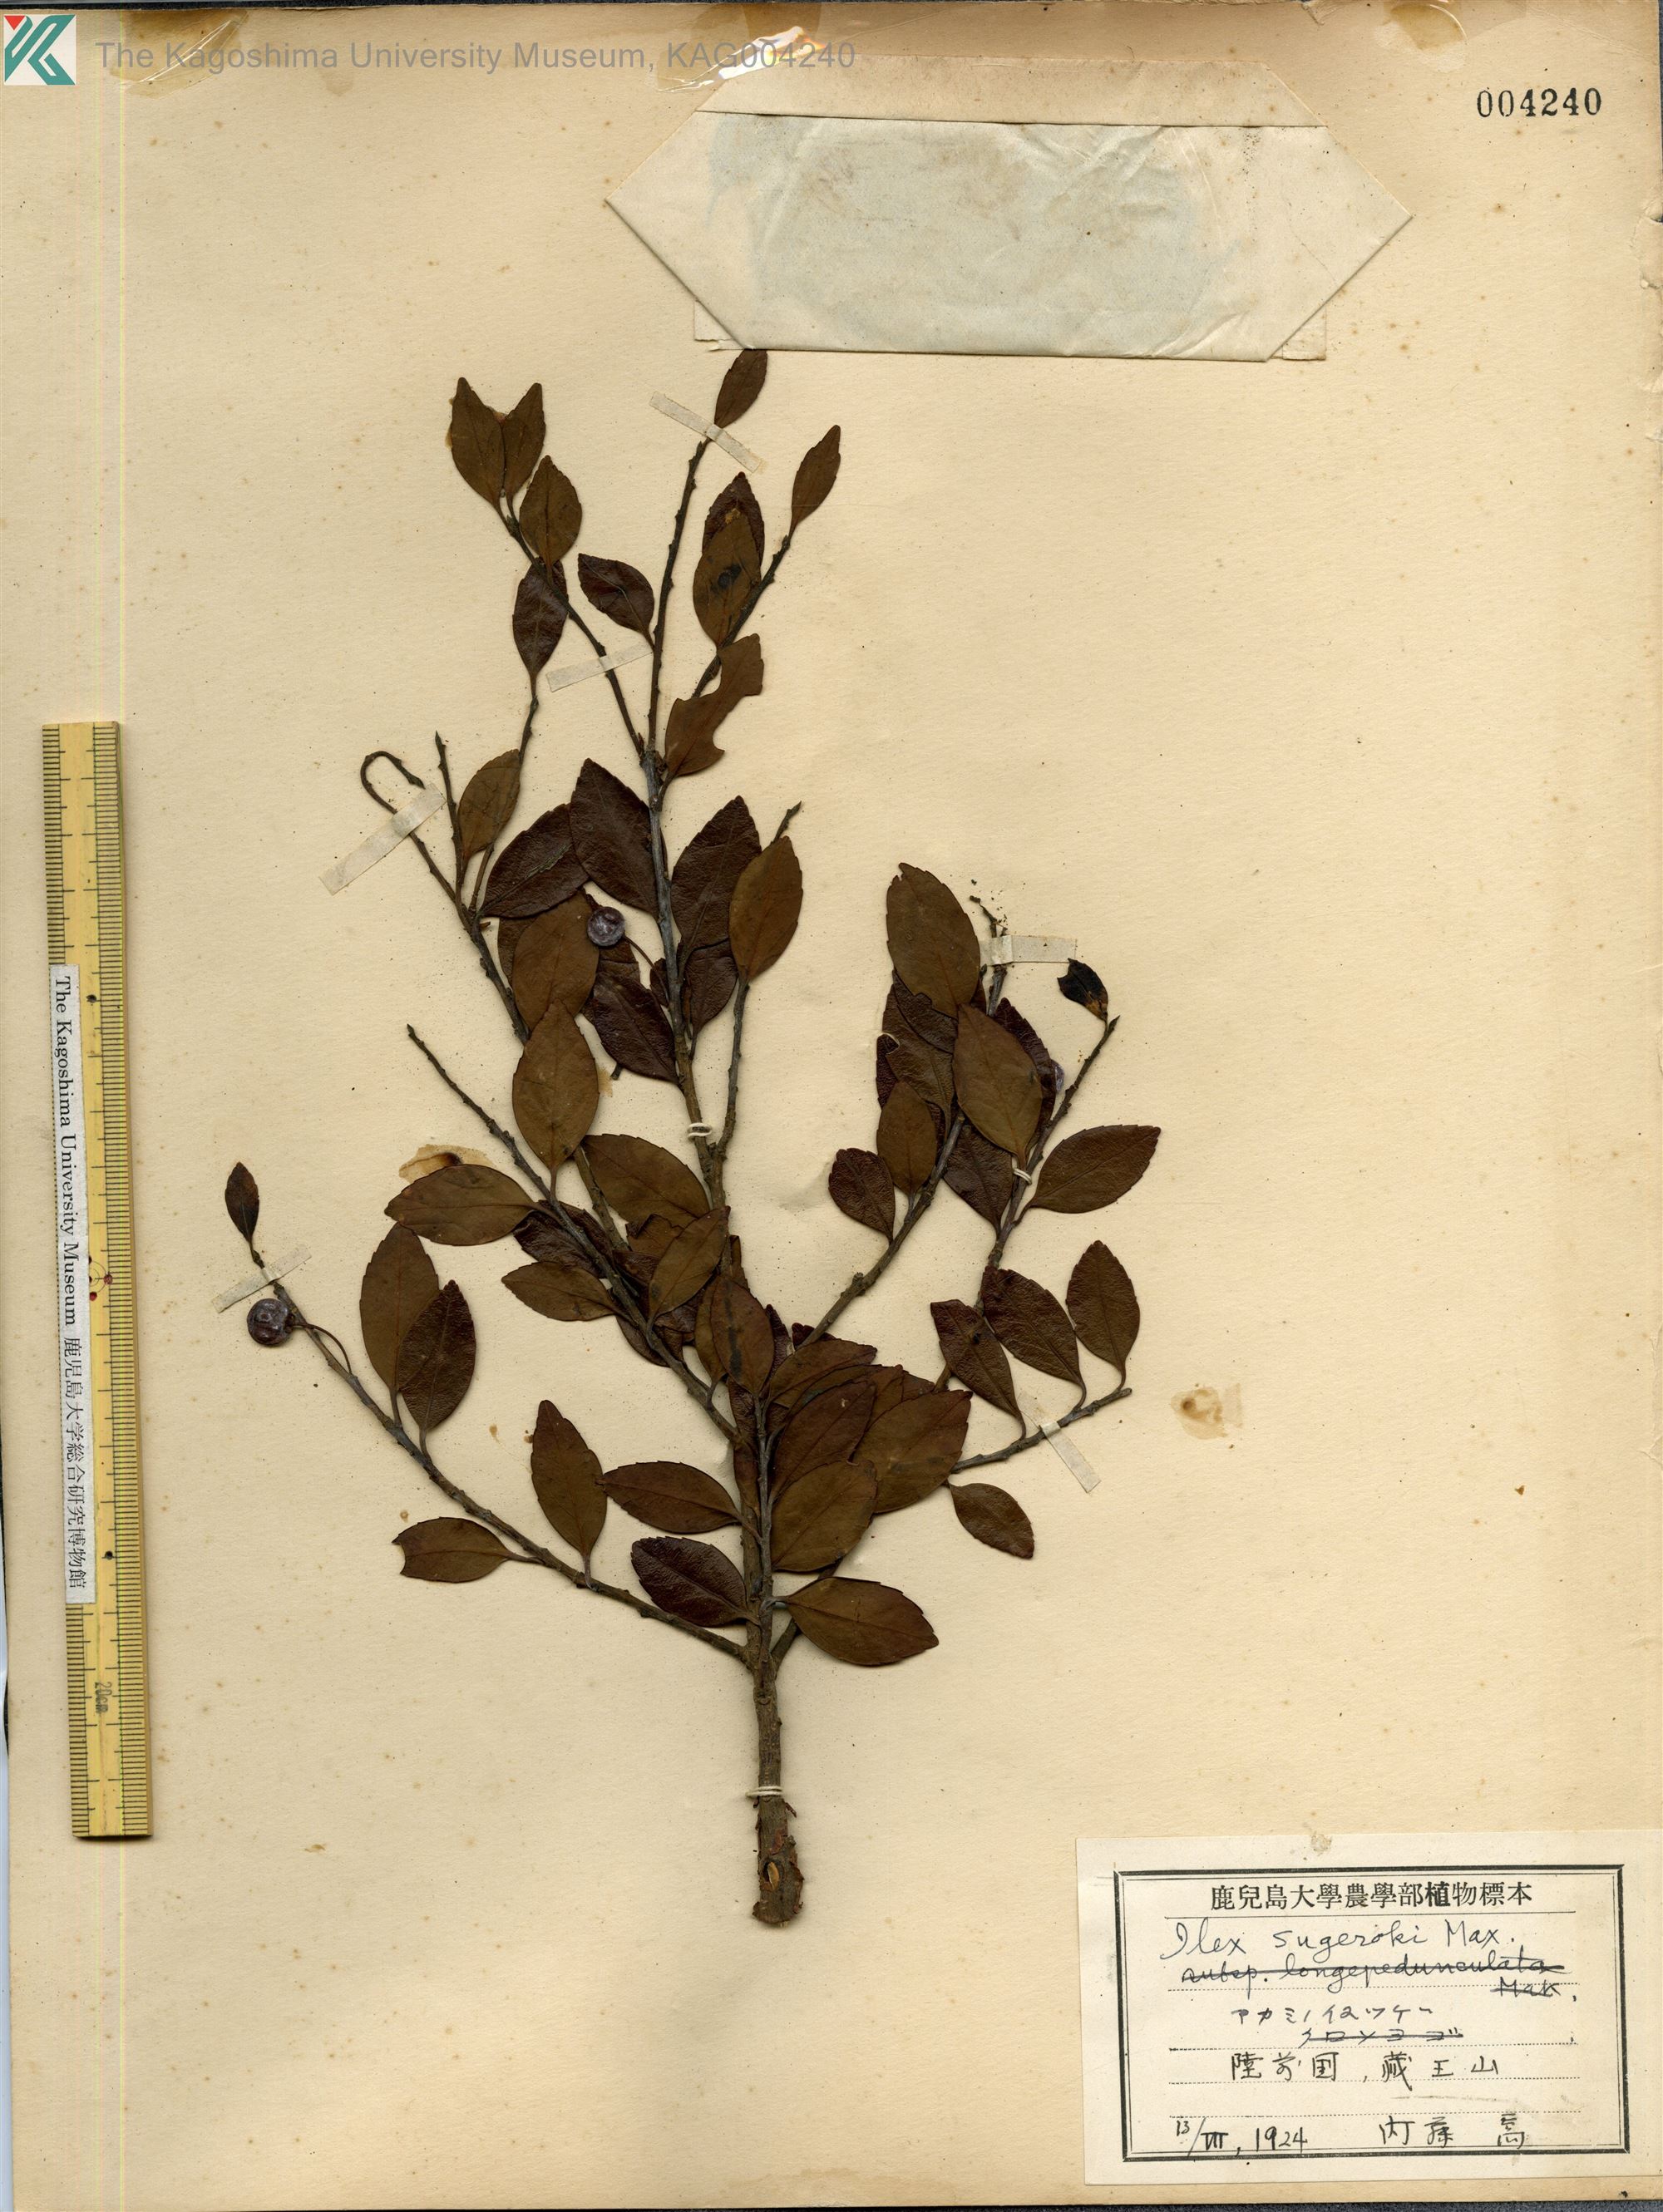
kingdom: Plantae
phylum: Tracheophyta
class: Magnoliopsida
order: Aquifoliales
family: Aquifoliaceae
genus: Ilex
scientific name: Ilex sugerokii
